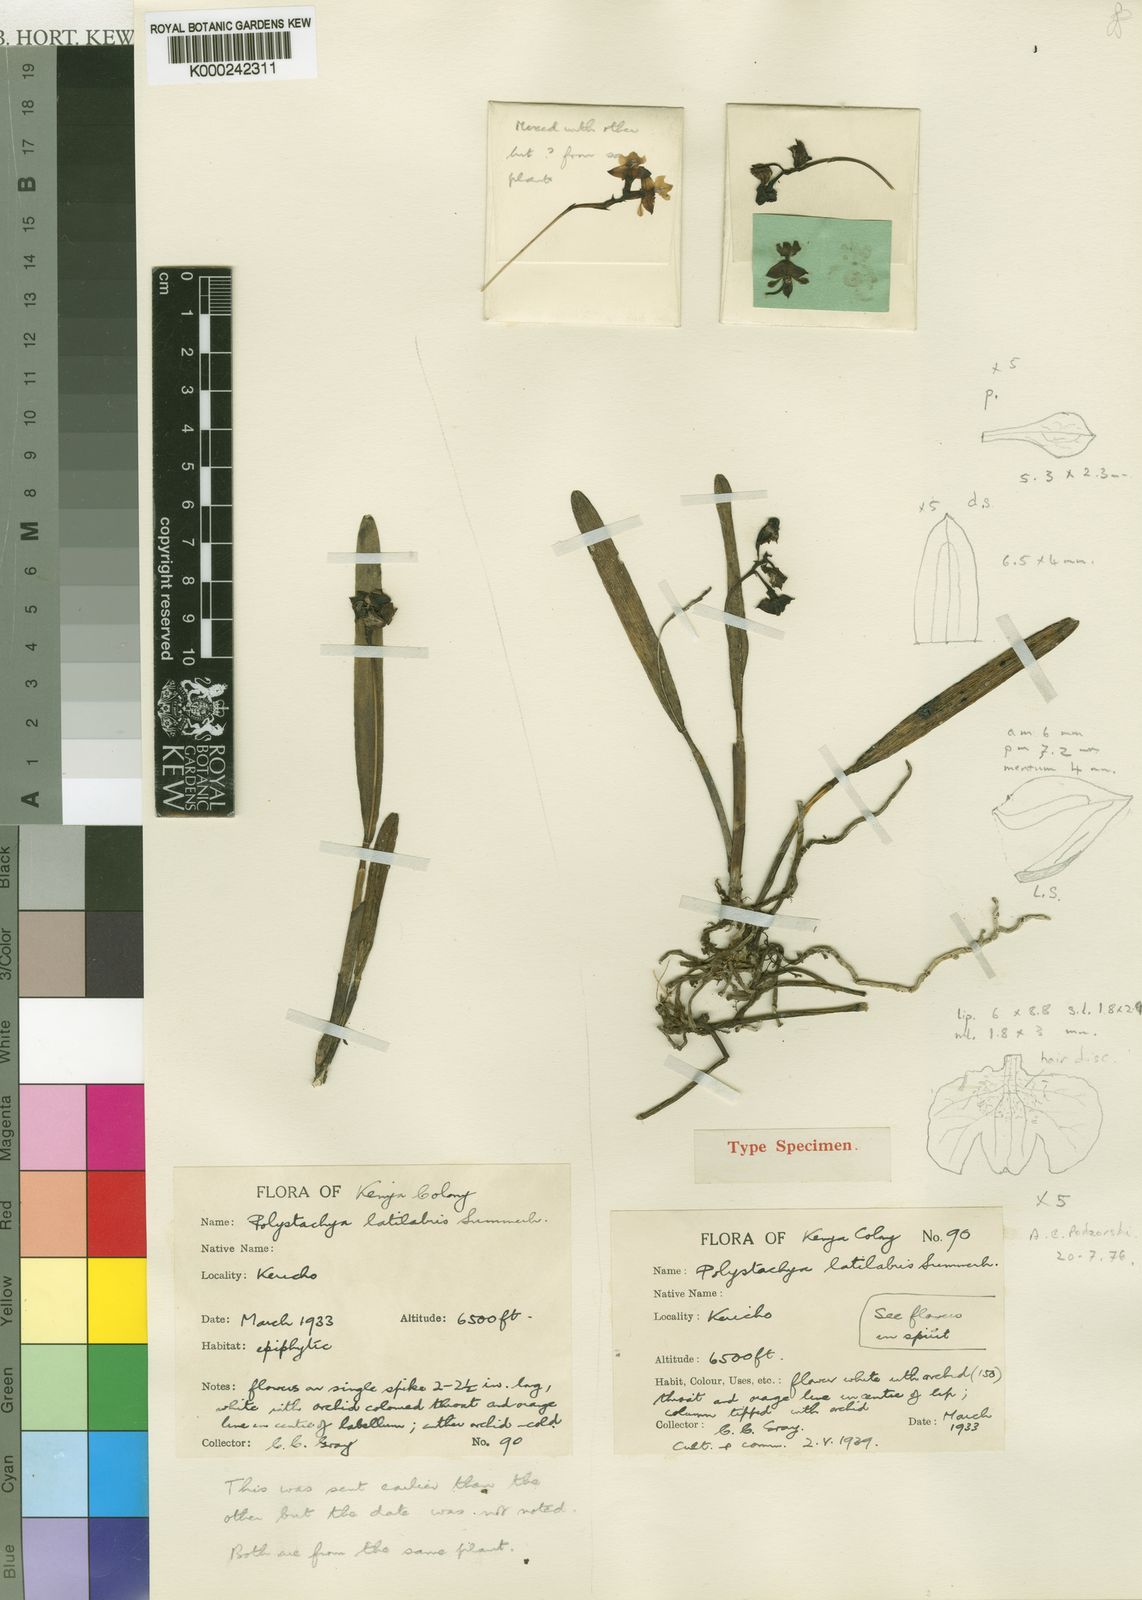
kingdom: Plantae
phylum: Tracheophyta
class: Liliopsida
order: Asparagales
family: Orchidaceae
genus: Polystachya
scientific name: Polystachya caespitifica
